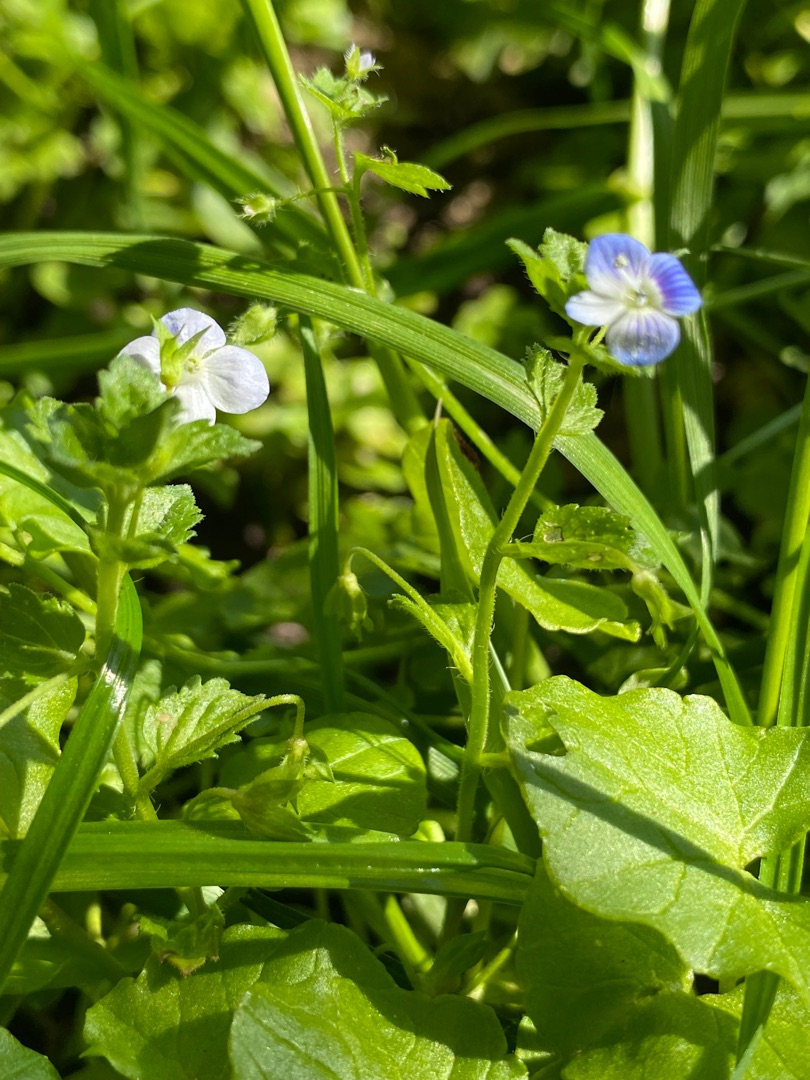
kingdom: Plantae
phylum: Tracheophyta
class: Magnoliopsida
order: Lamiales
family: Plantaginaceae
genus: Veronica
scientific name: Veronica chamaedrys
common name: Tveskægget ærenpris
